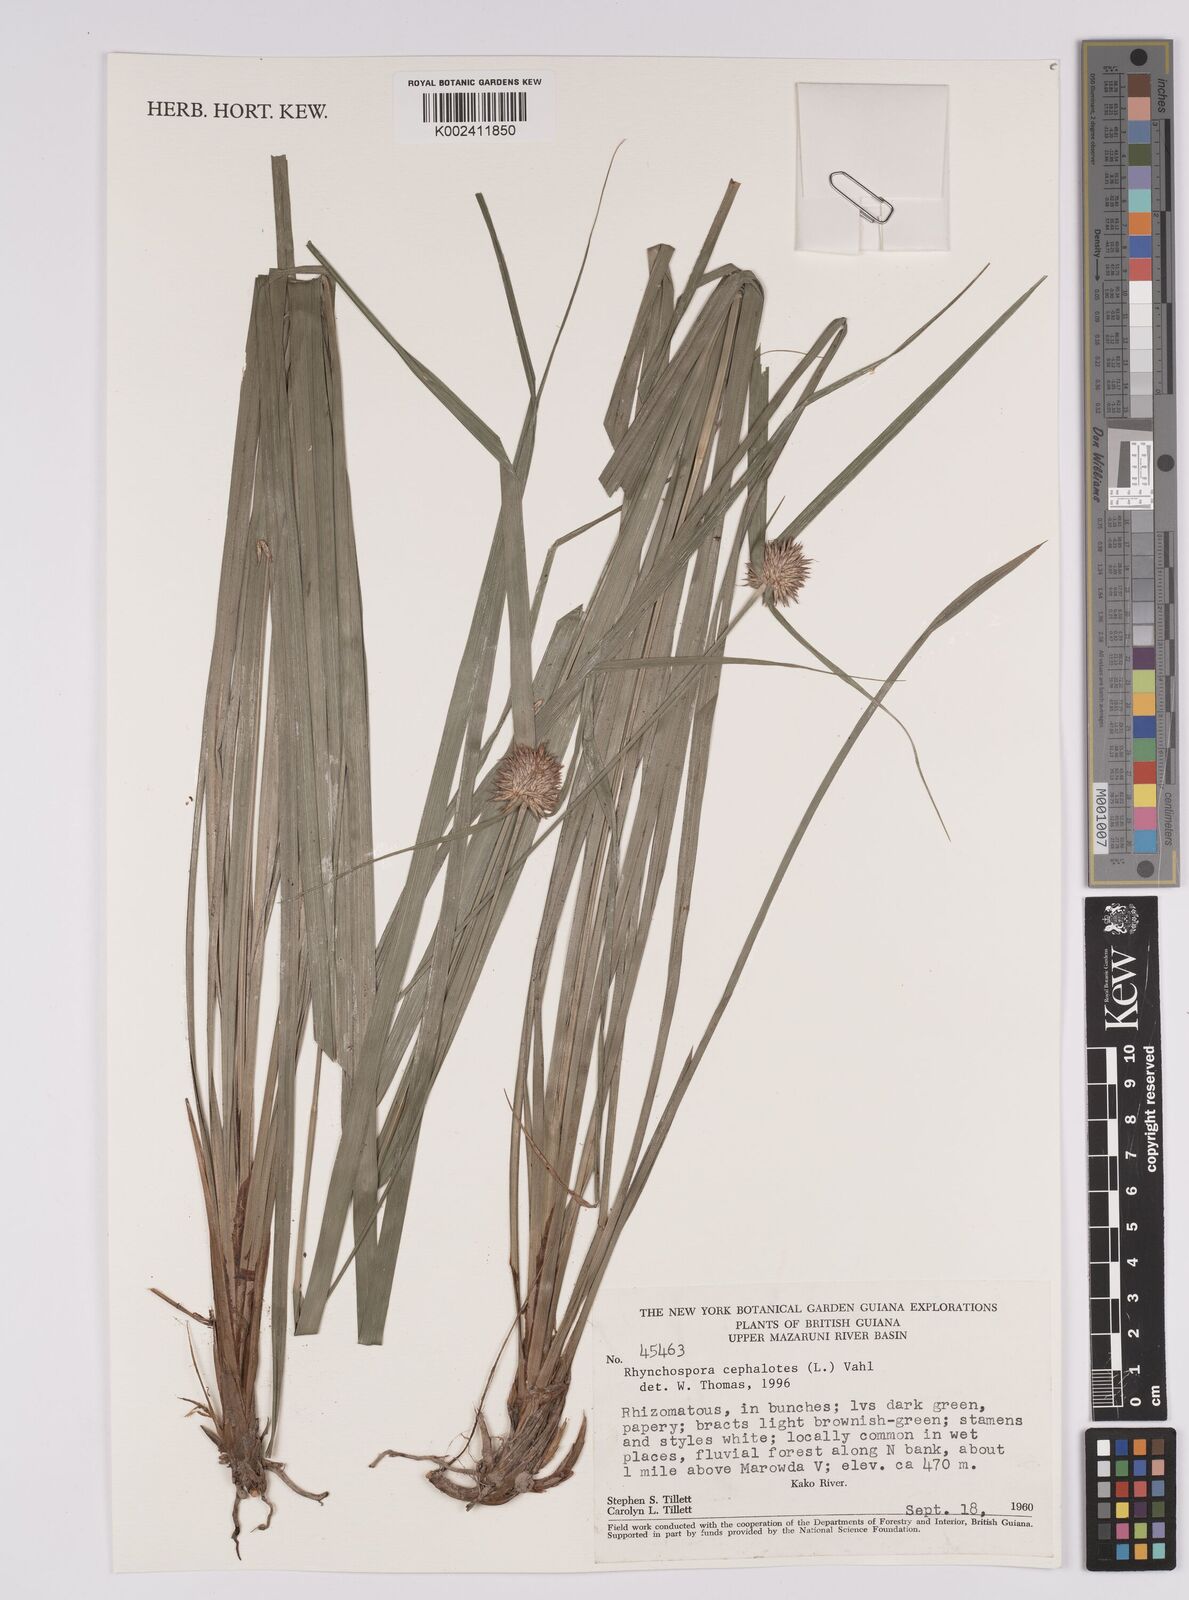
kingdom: Plantae
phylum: Tracheophyta
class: Liliopsida
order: Poales
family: Cyperaceae
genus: Rhynchospora
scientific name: Rhynchospora cephalotes
